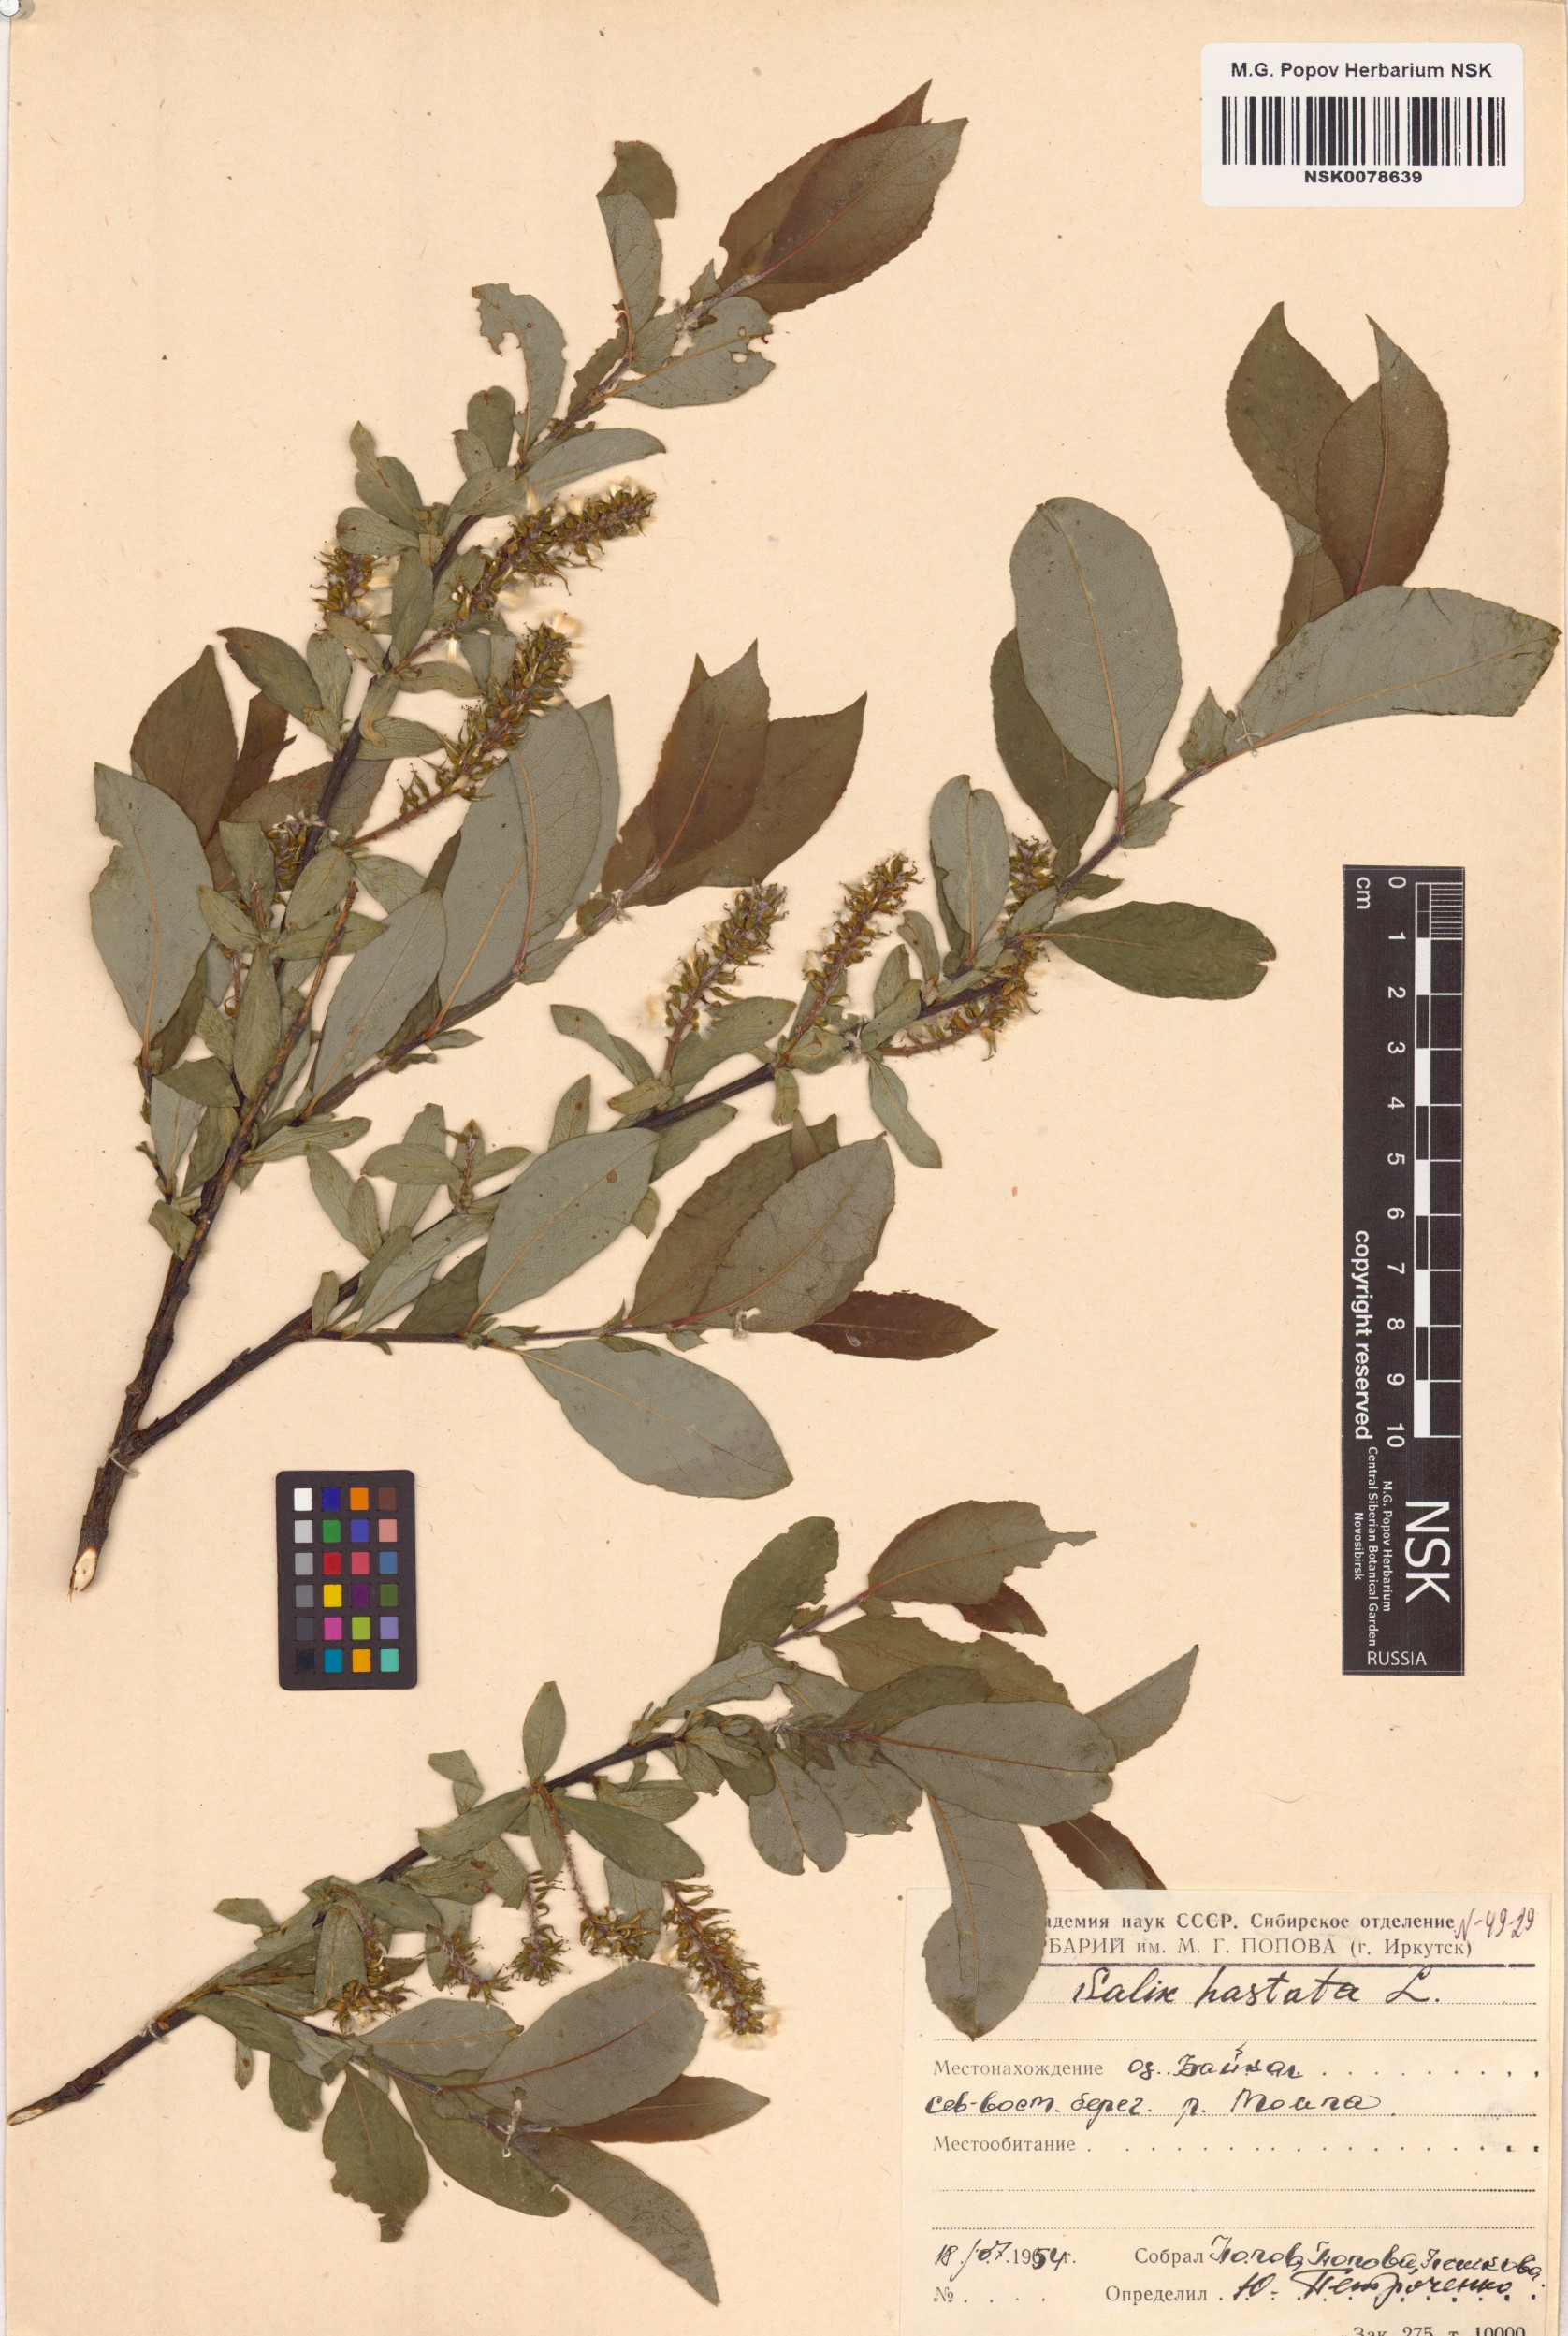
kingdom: Plantae
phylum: Tracheophyta
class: Magnoliopsida
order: Malpighiales
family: Salicaceae
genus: Salix
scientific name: Salix hastata
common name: Halberd willow
